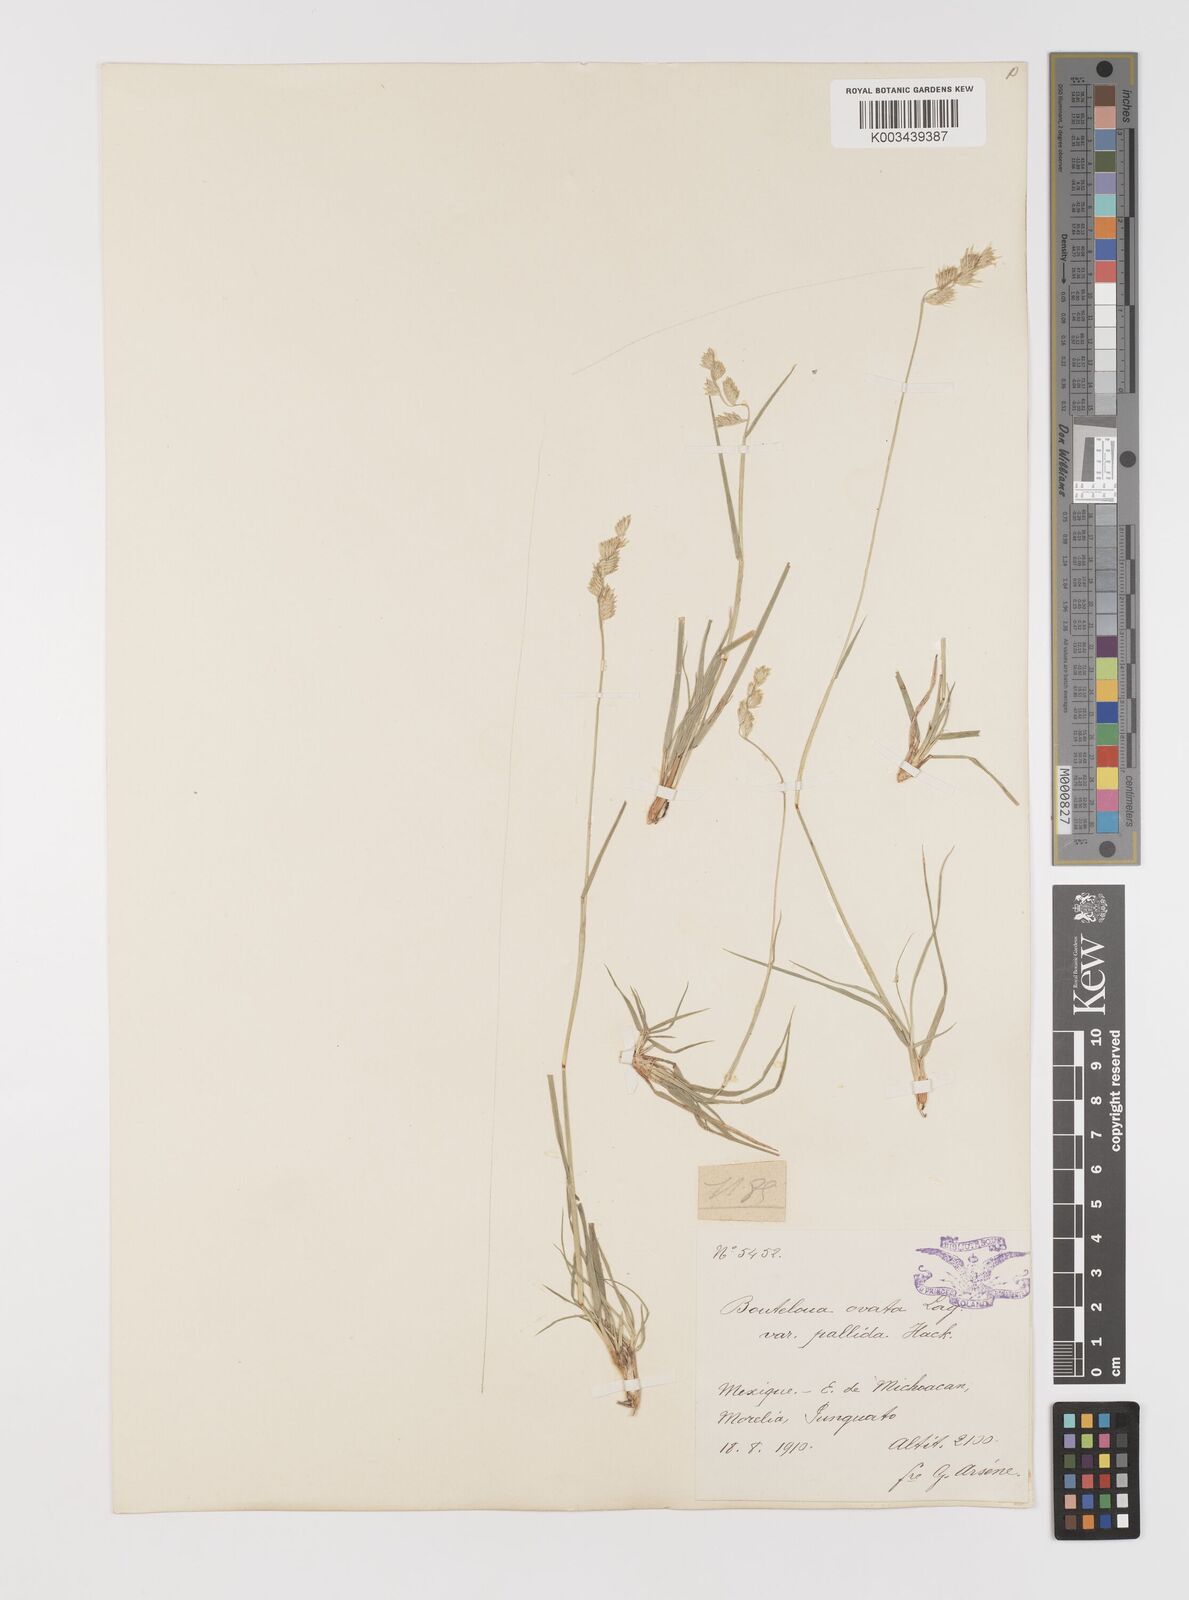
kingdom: Plantae
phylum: Tracheophyta
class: Liliopsida
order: Poales
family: Poaceae
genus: Bouteloua
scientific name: Bouteloua chondrosioides
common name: Sprucetop grama
